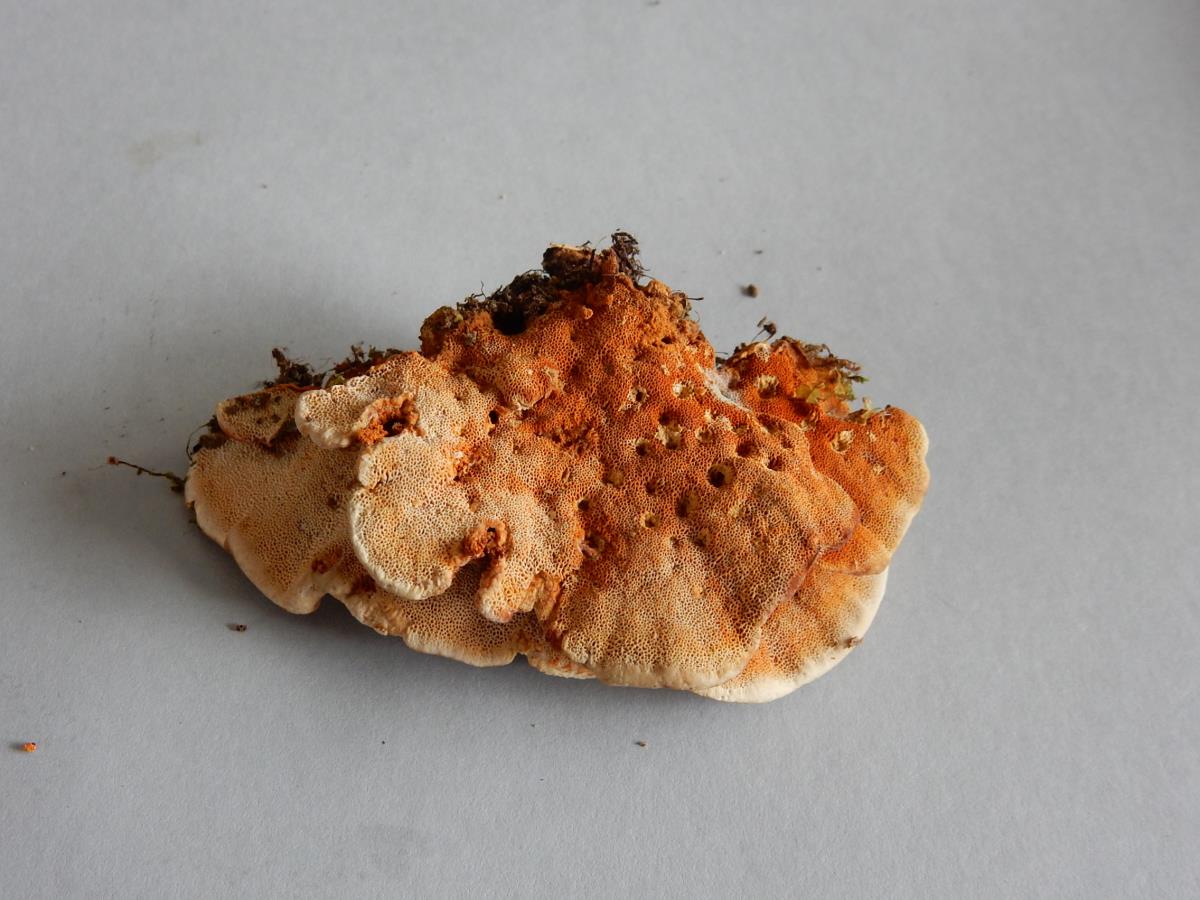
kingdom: Fungi
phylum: Basidiomycota
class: Agaricomycetes
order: Hymenochaetales
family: Hymenochaetaceae
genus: Hymenochaete
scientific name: Hymenochaete microcycla
